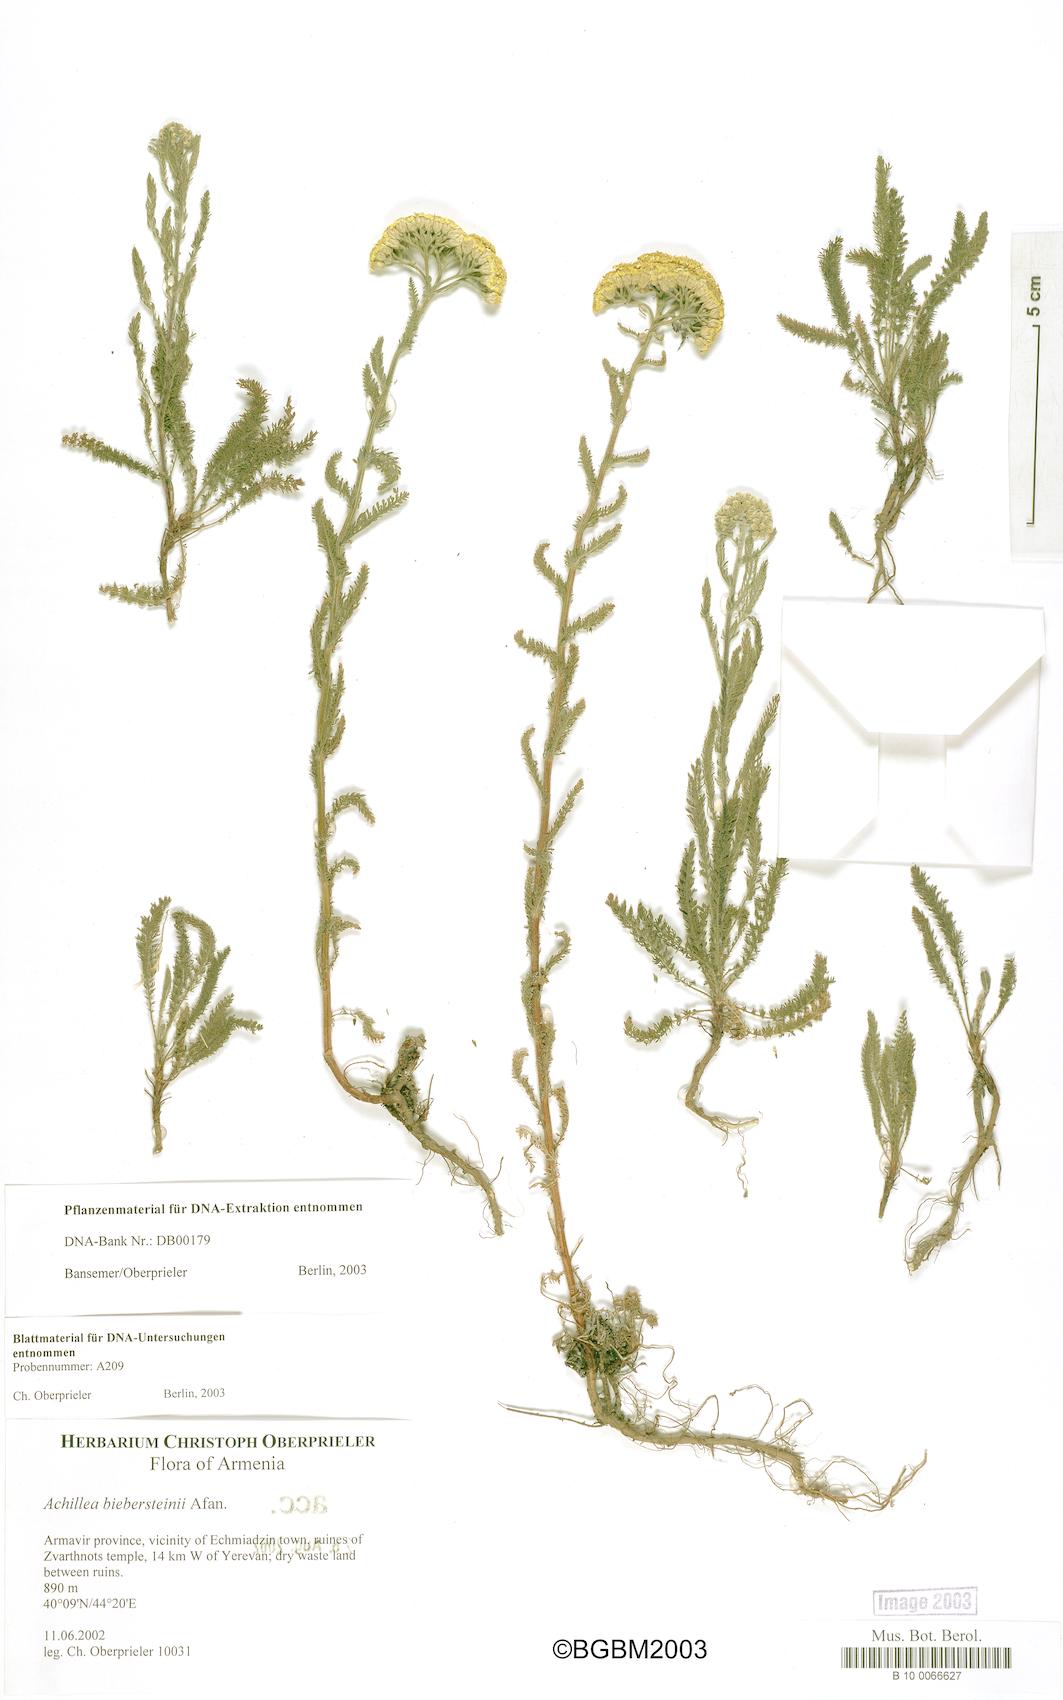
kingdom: Plantae
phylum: Tracheophyta
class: Magnoliopsida
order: Asterales
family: Asteraceae
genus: Achillea
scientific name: Achillea arabica
